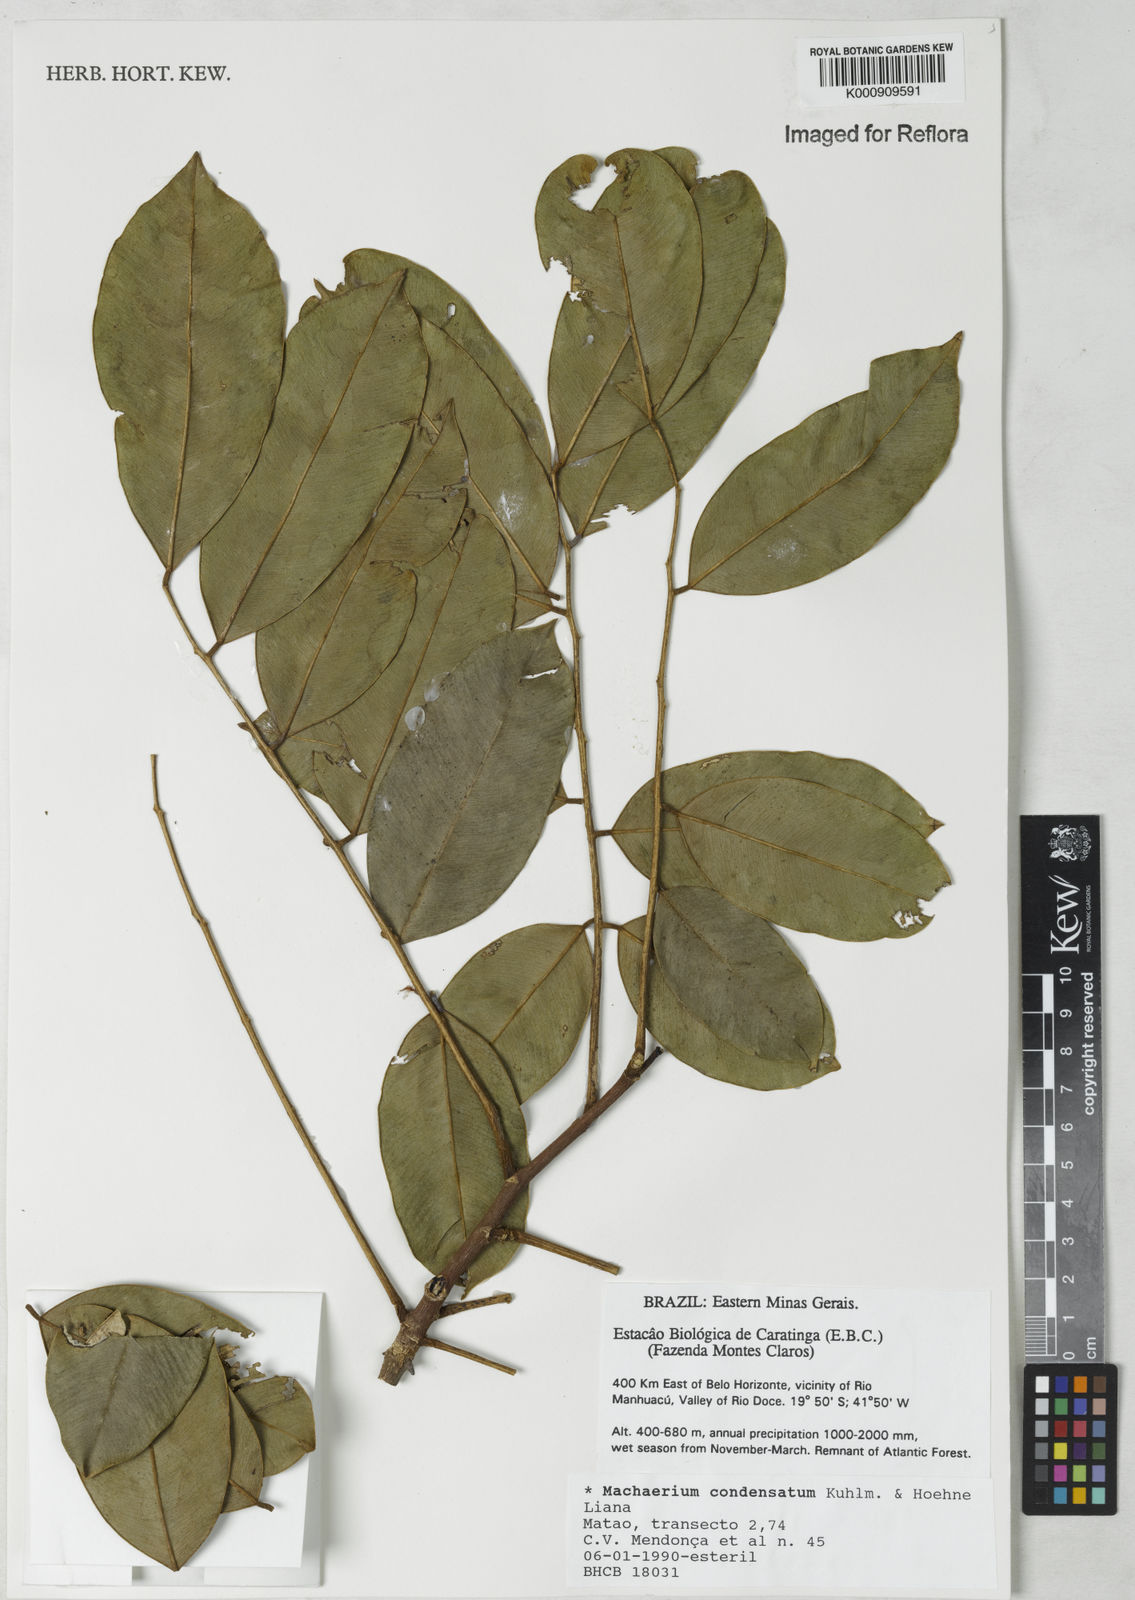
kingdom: Plantae
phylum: Tracheophyta
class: Magnoliopsida
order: Fabales
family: Fabaceae
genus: Machaerium
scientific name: Machaerium condensatum
